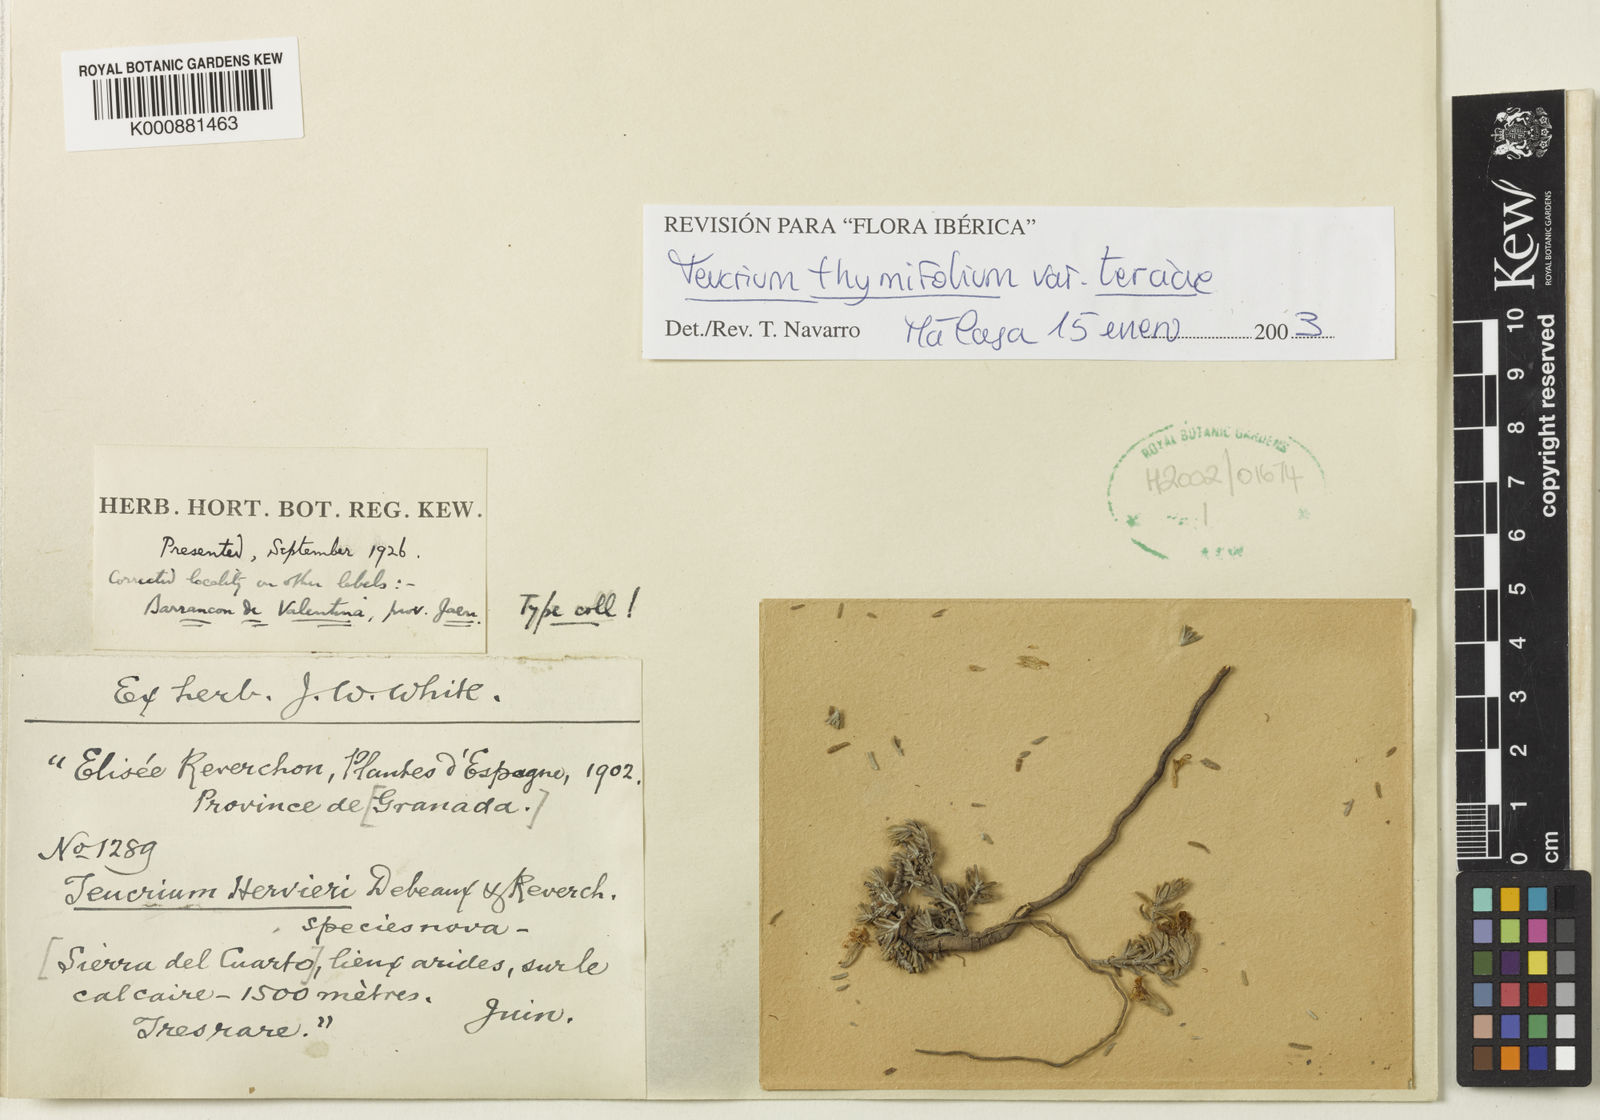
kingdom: Plantae
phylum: Tracheophyta
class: Magnoliopsida
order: Lamiales
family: Lamiaceae
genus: Teucrium
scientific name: Teucrium thymifolium
